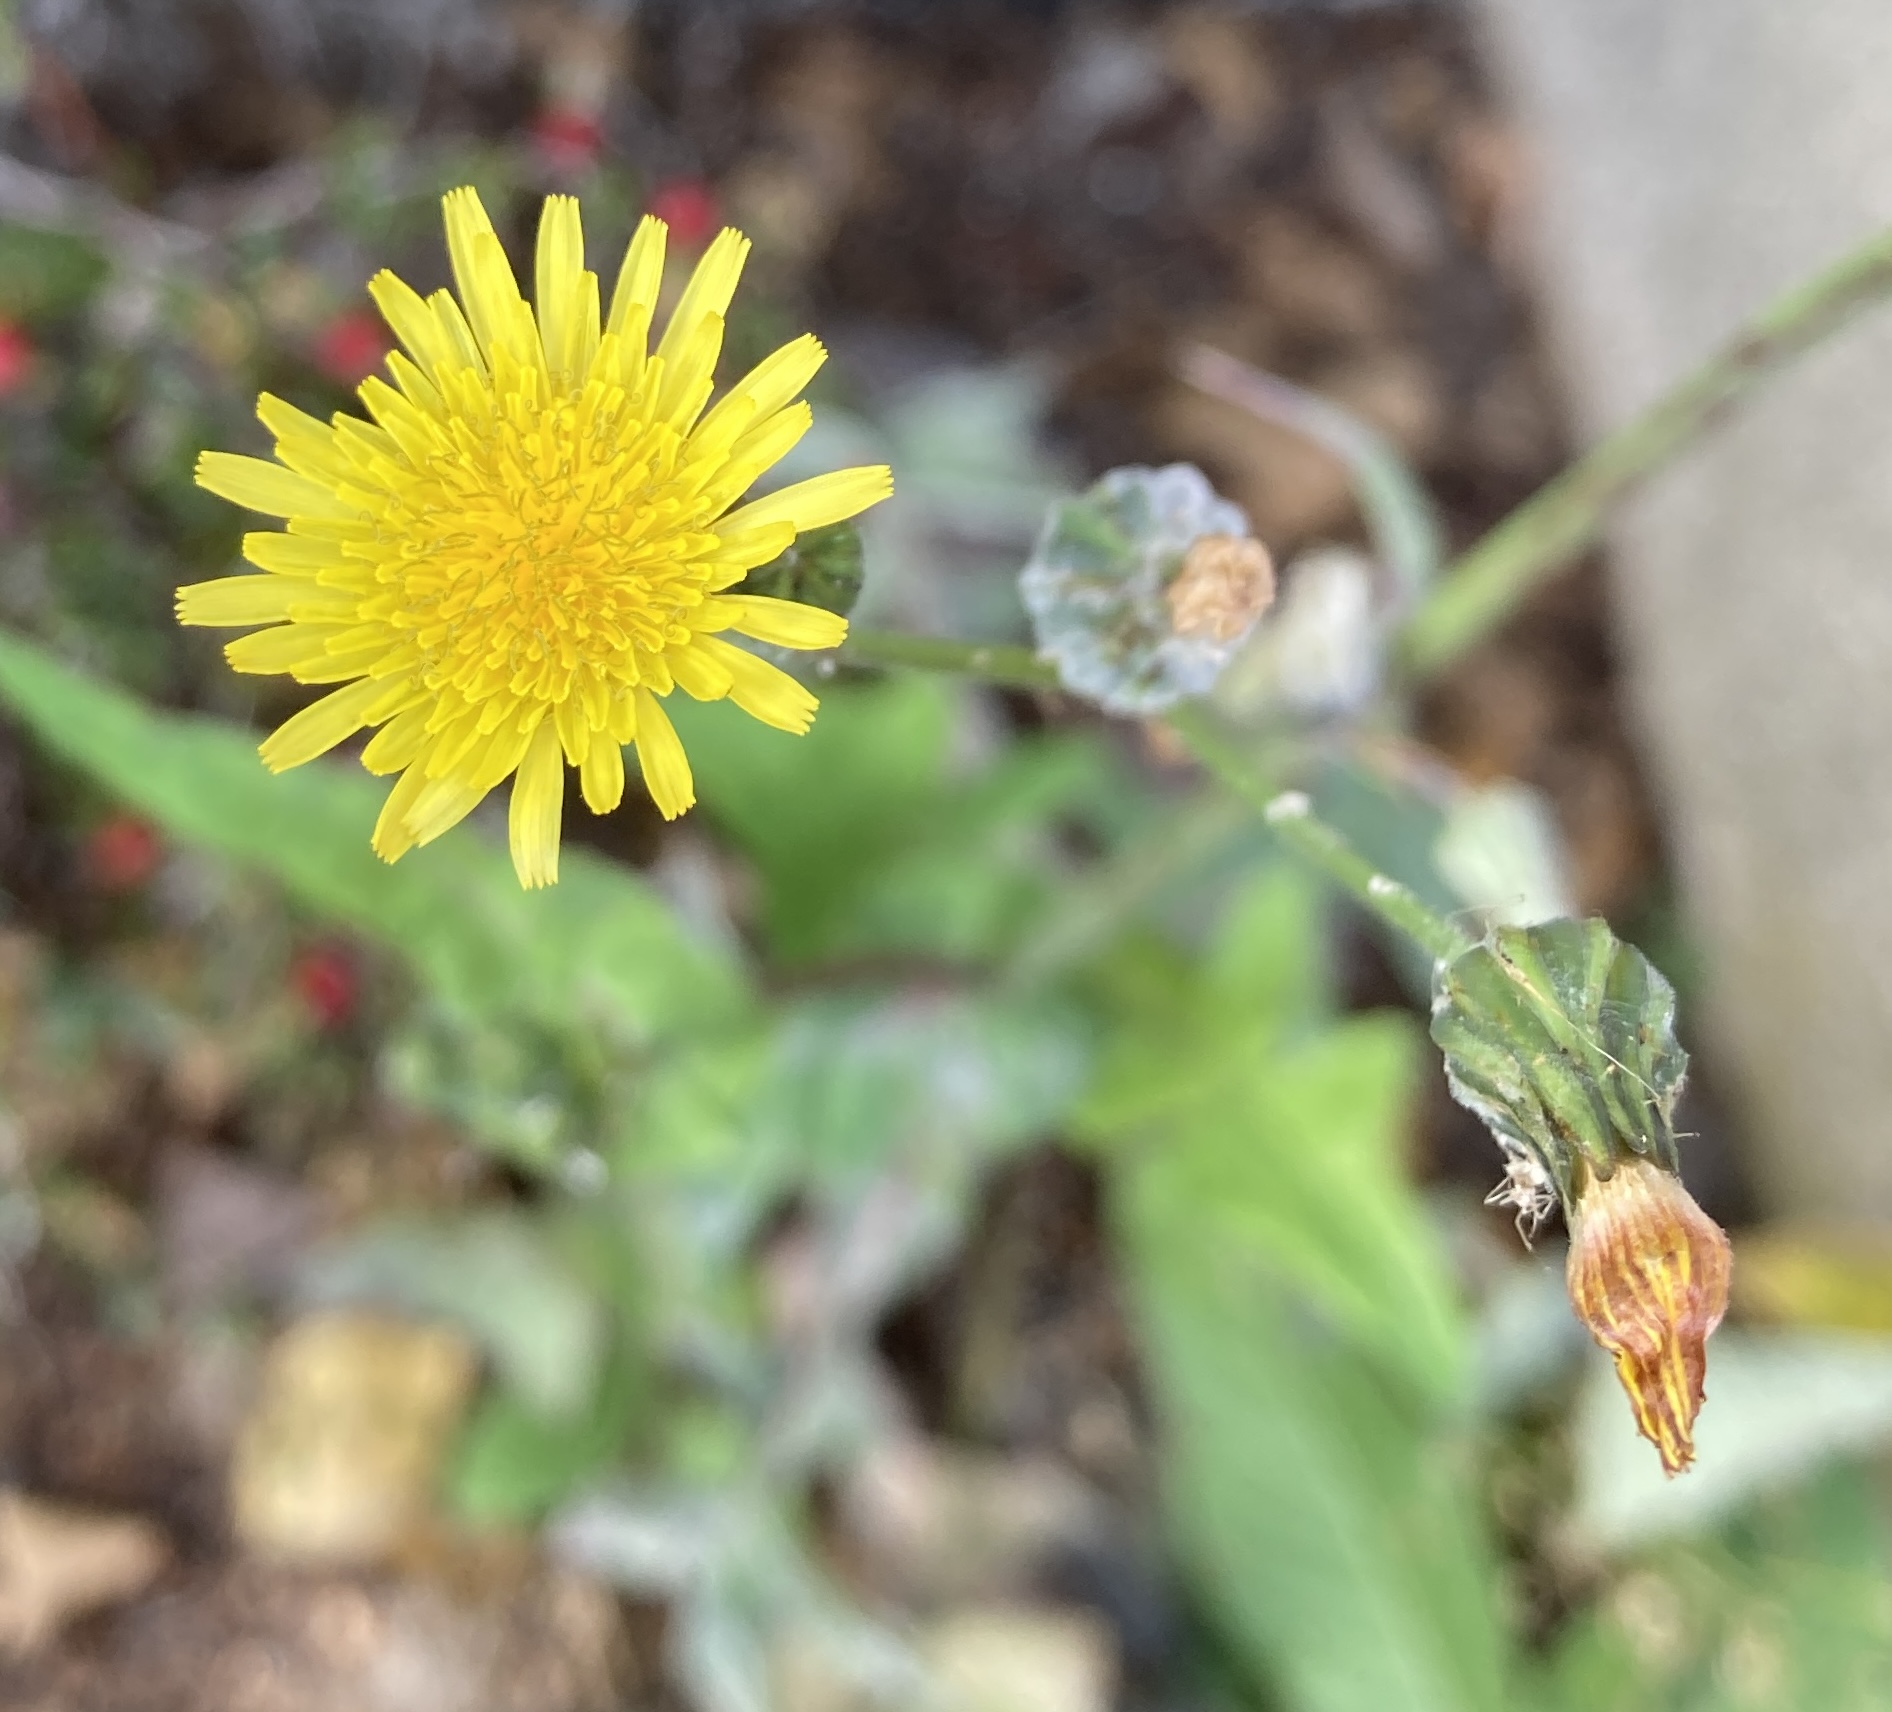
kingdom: Plantae
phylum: Tracheophyta
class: Magnoliopsida
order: Asterales
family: Asteraceae
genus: Sonchus
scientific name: Sonchus oleraceus
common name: Almindelig svinemælk
